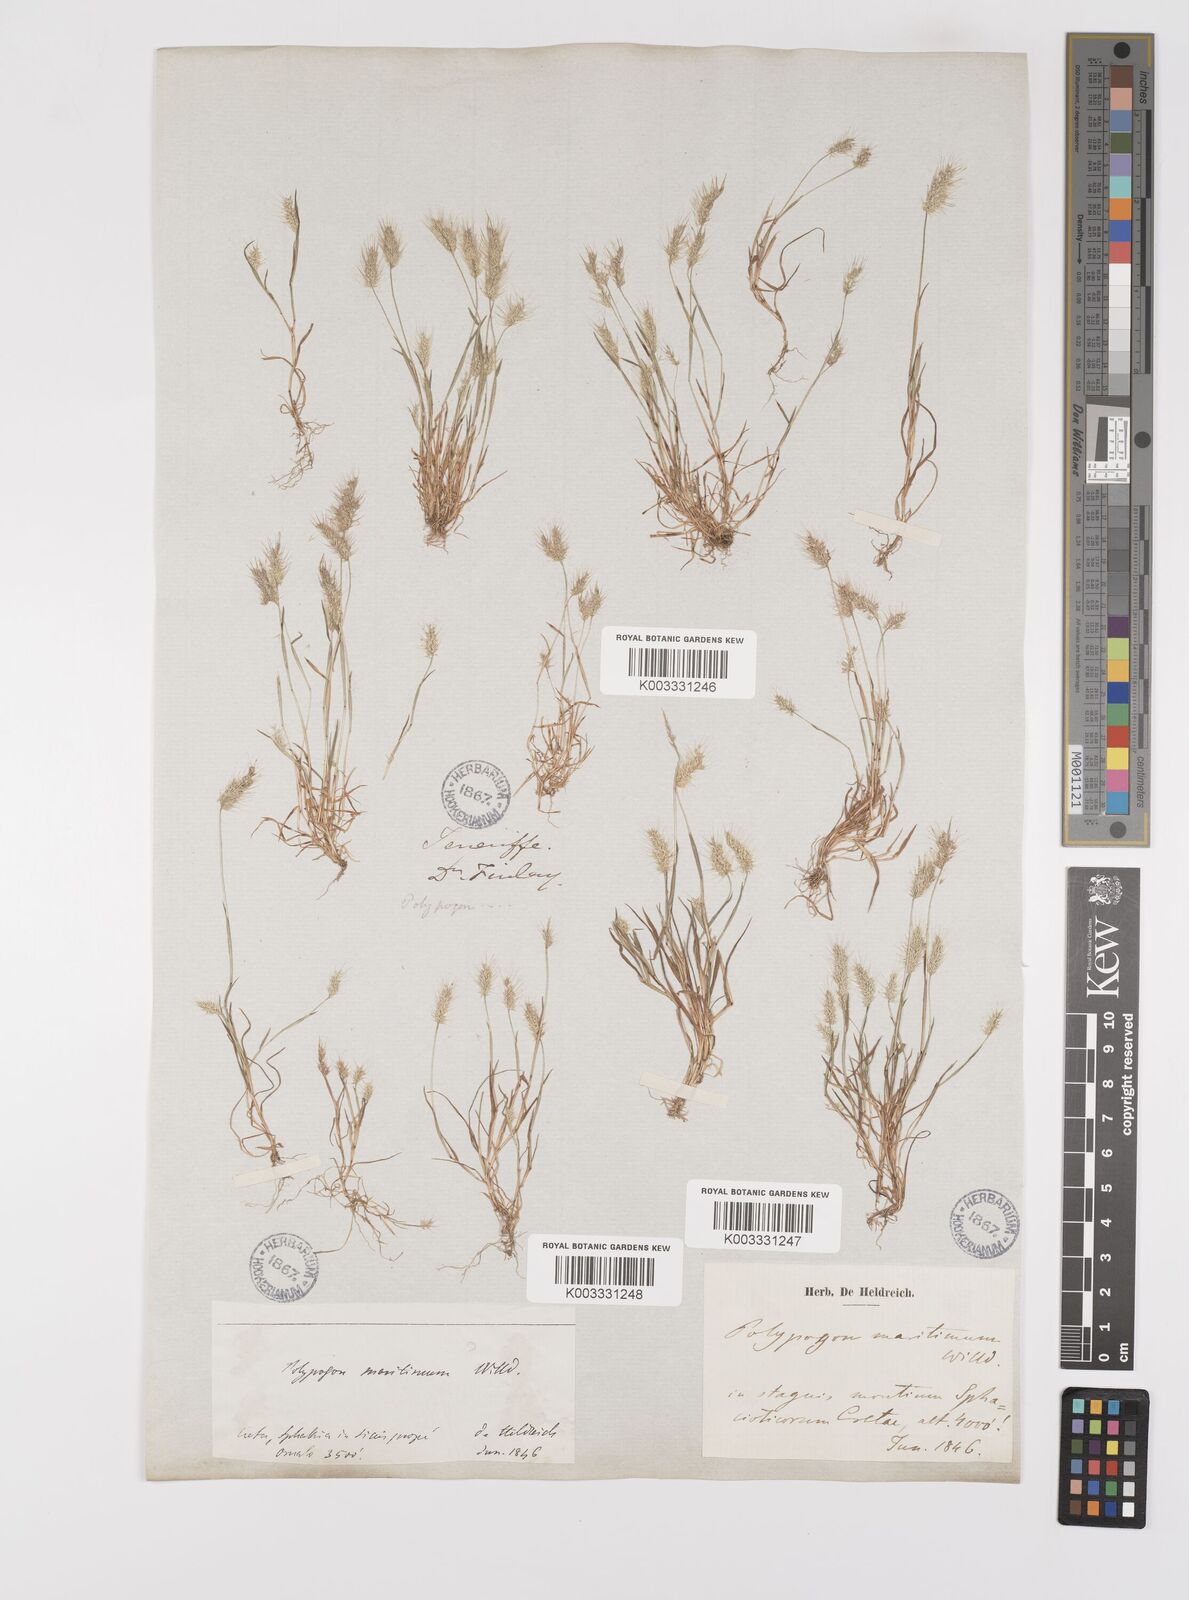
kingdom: Plantae
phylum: Tracheophyta
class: Liliopsida
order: Poales
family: Poaceae
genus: Polypogon
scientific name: Polypogon maritimus
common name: Mediterranean rabbitsfoot grass
